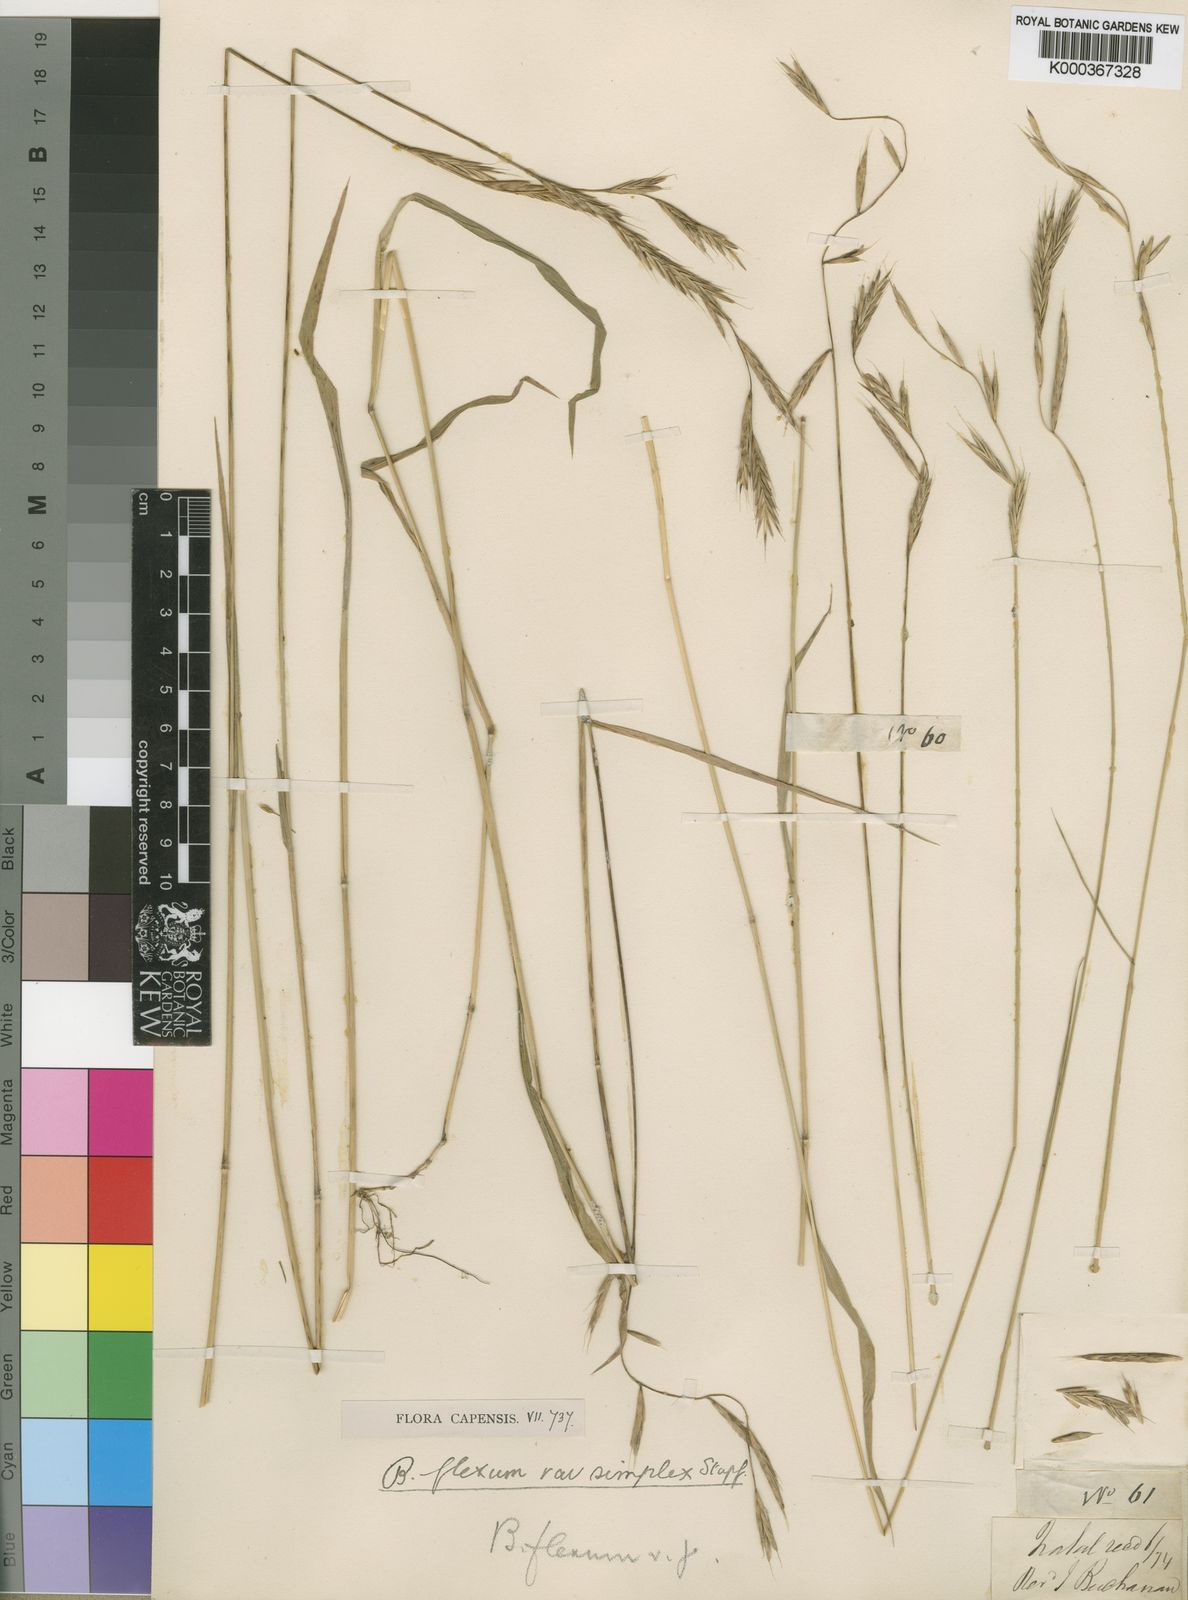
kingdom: Plantae
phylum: Tracheophyta
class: Liliopsida
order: Poales
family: Poaceae
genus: Brachypodium
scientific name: Brachypodium flexum
